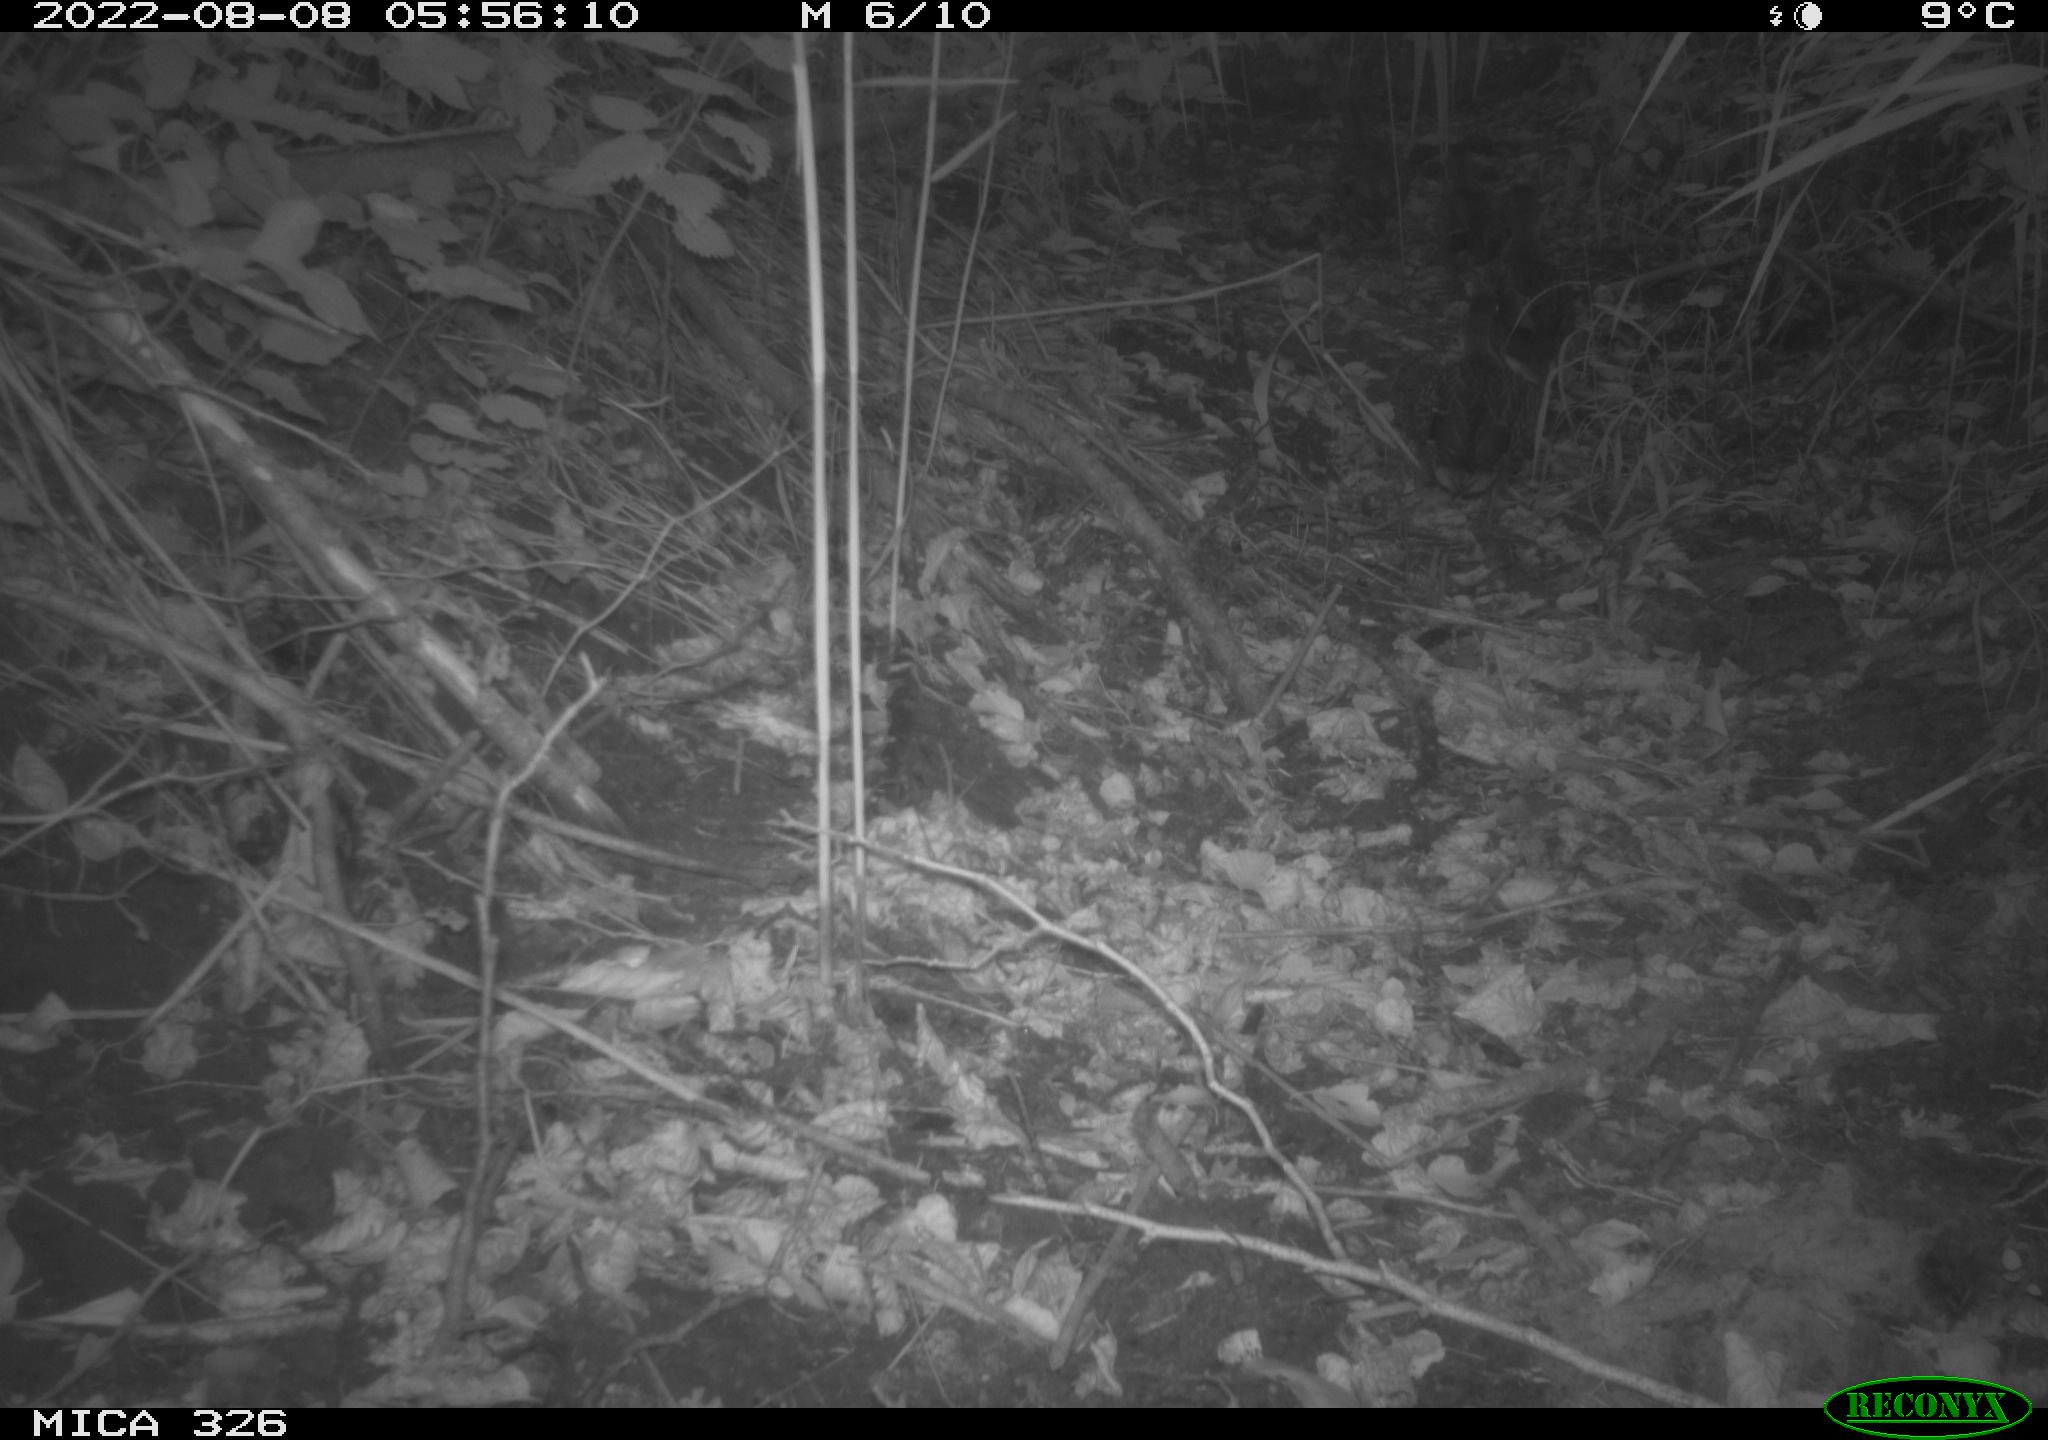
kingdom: Animalia
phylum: Chordata
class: Aves
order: Anseriformes
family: Anatidae
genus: Anas
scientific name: Anas
